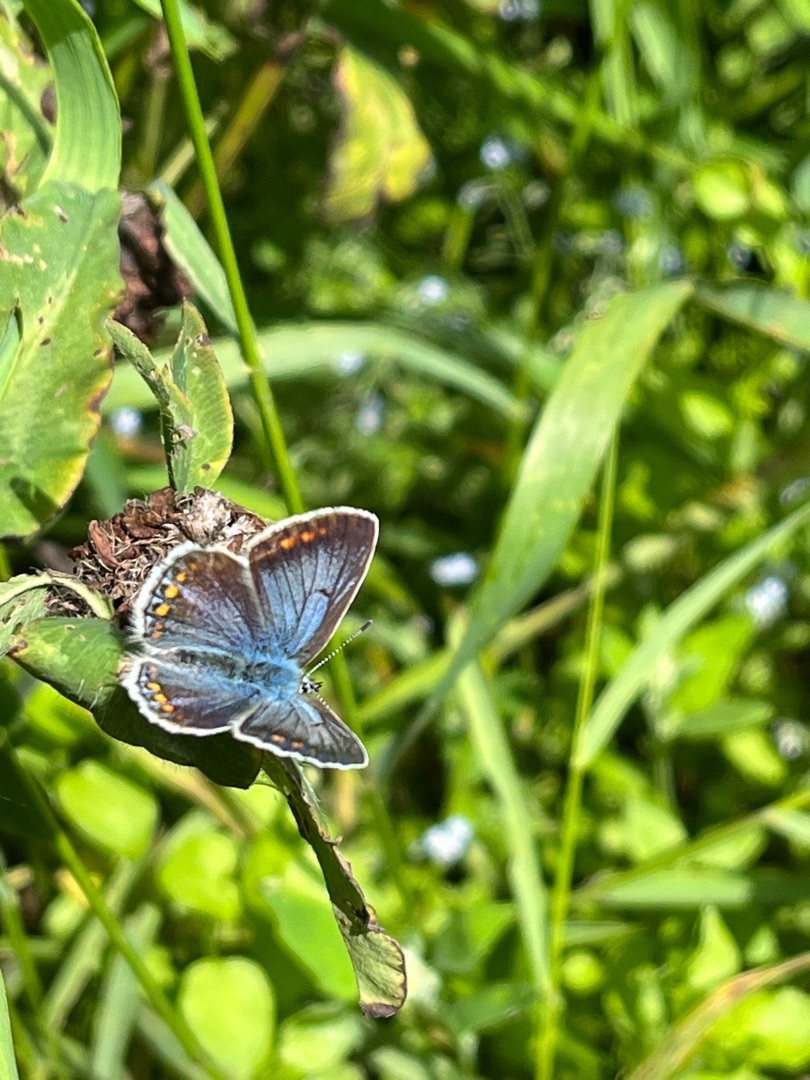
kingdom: Animalia
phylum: Arthropoda
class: Insecta
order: Lepidoptera
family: Lycaenidae
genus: Polyommatus
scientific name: Polyommatus icarus
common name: Almindelig blåfugl
